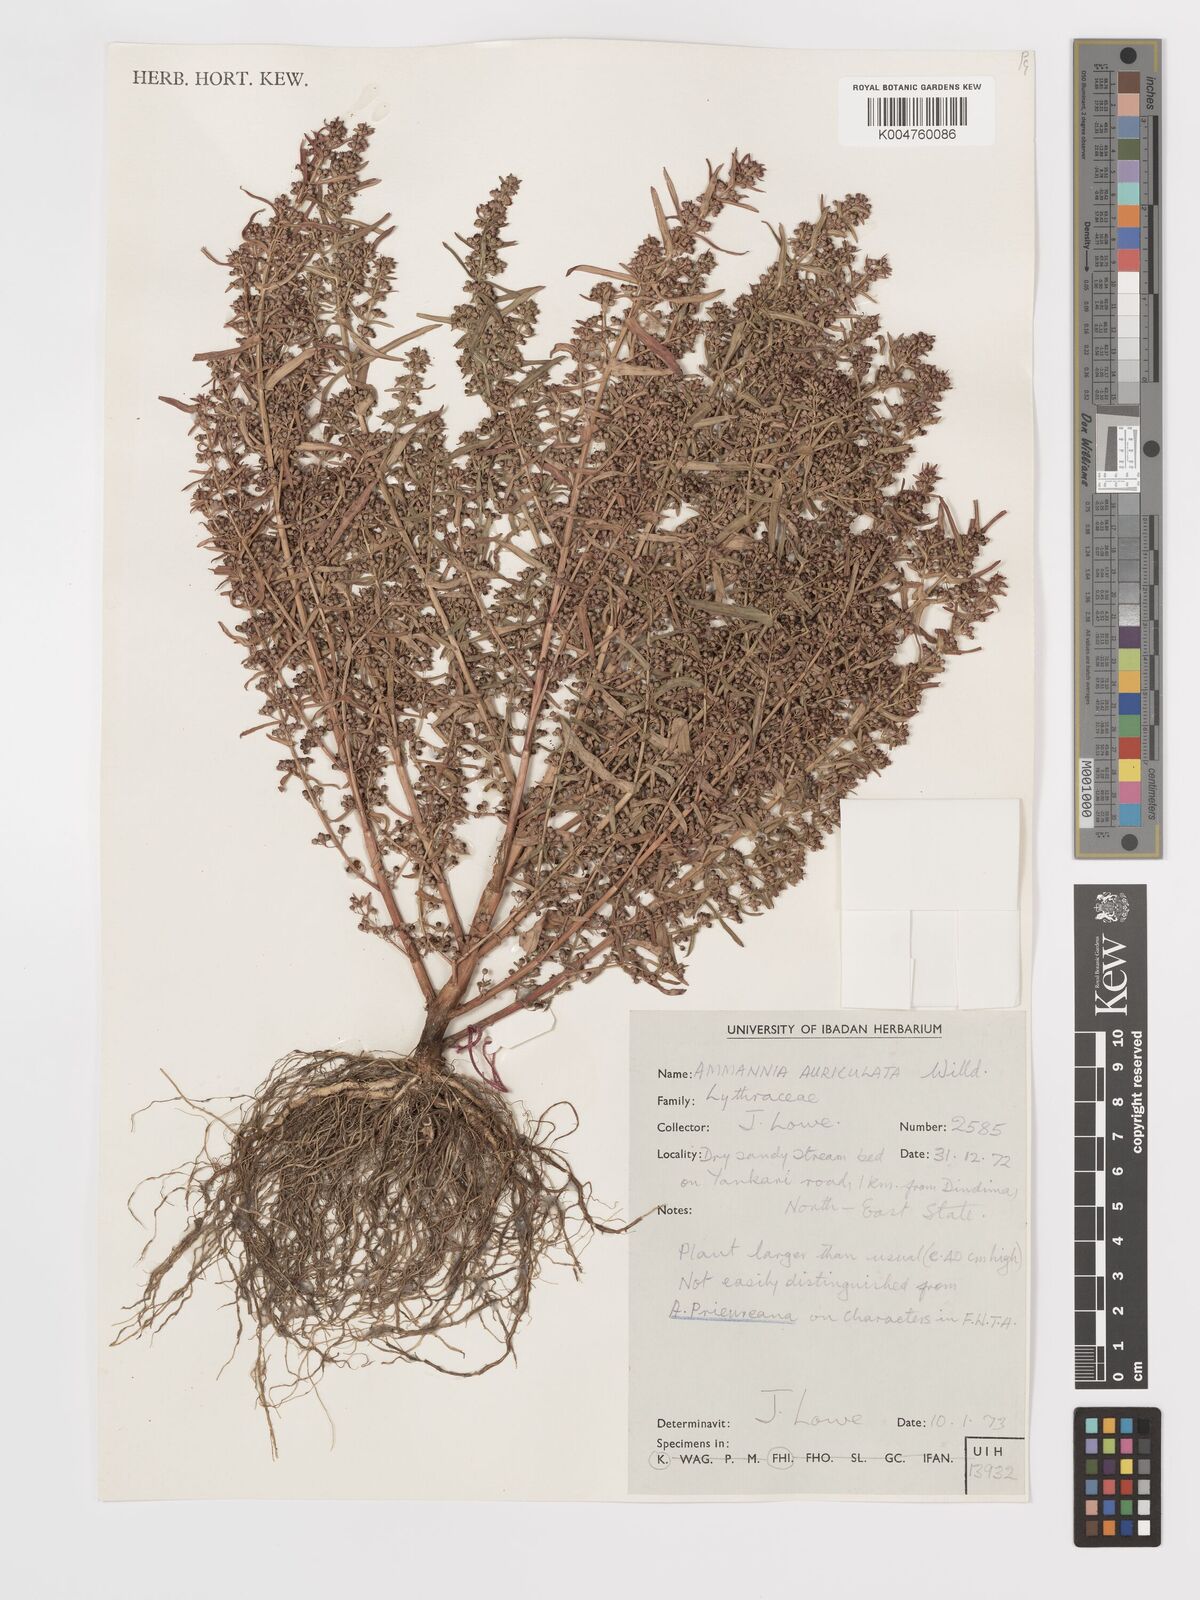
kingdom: Plantae
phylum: Tracheophyta
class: Magnoliopsida
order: Myrtales
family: Lythraceae
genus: Ammannia
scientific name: Ammannia auriculata
